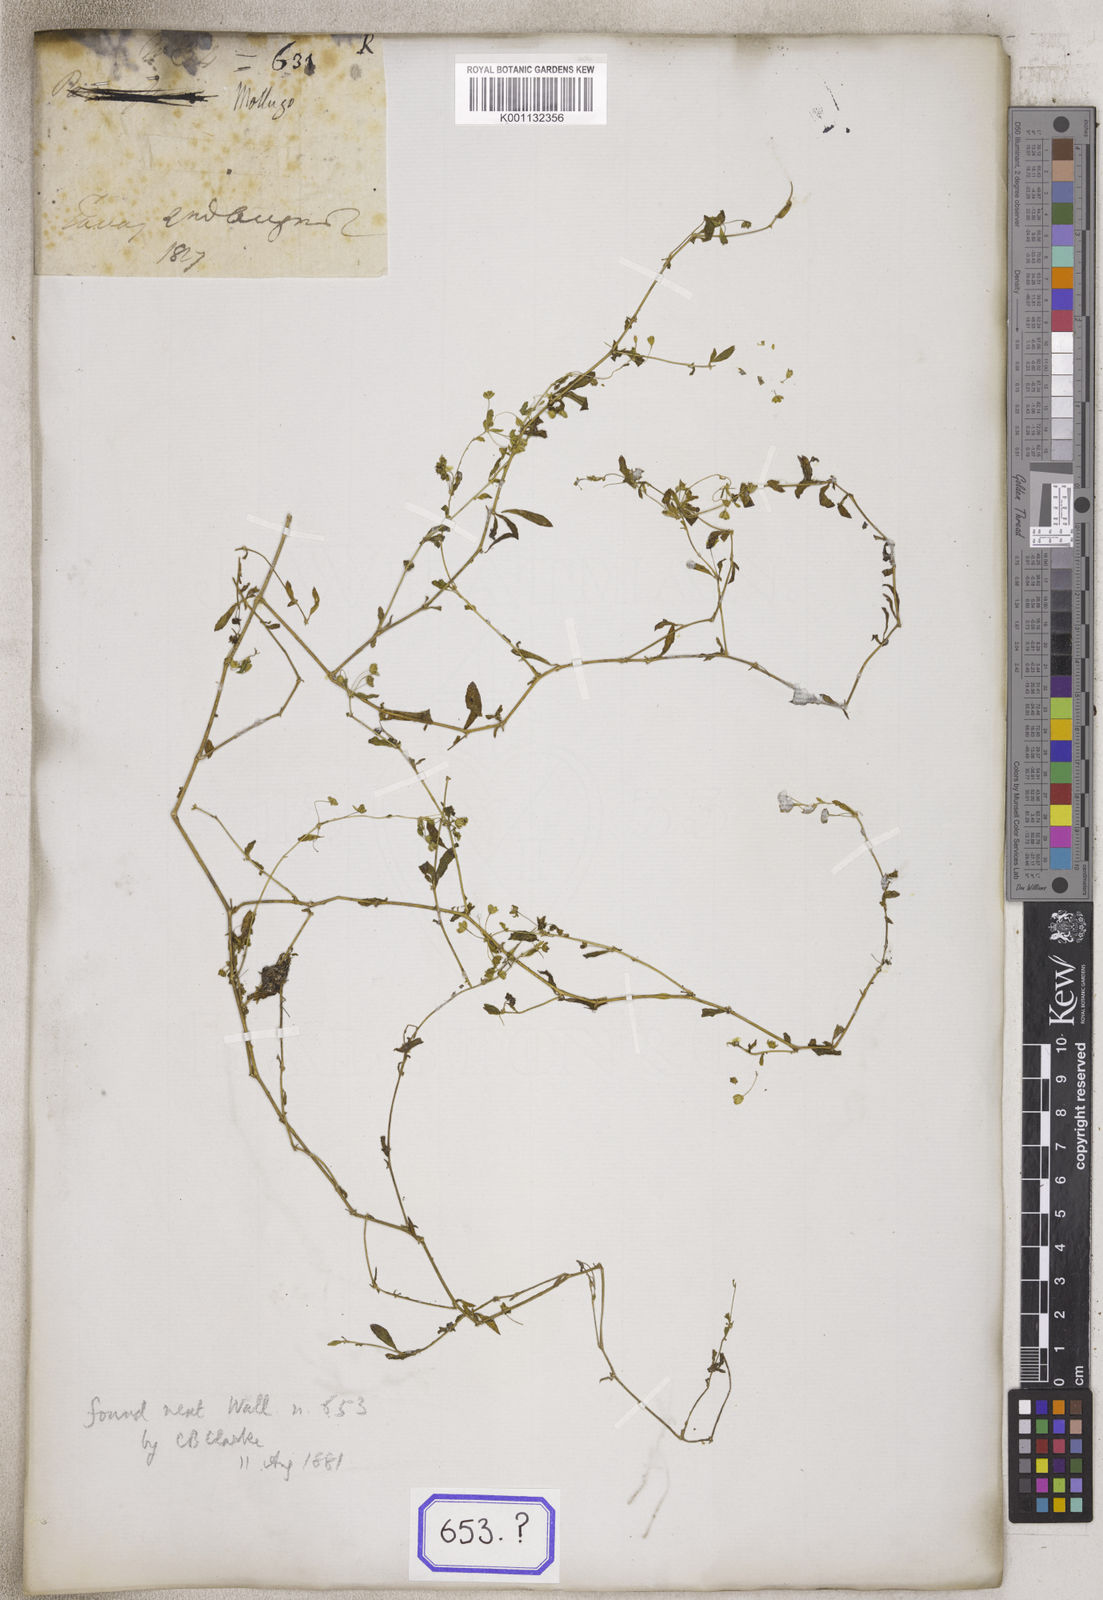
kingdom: Plantae
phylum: Tracheophyta
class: Magnoliopsida
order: Caryophyllales
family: Molluginaceae
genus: Mollugo
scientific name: Mollugo
